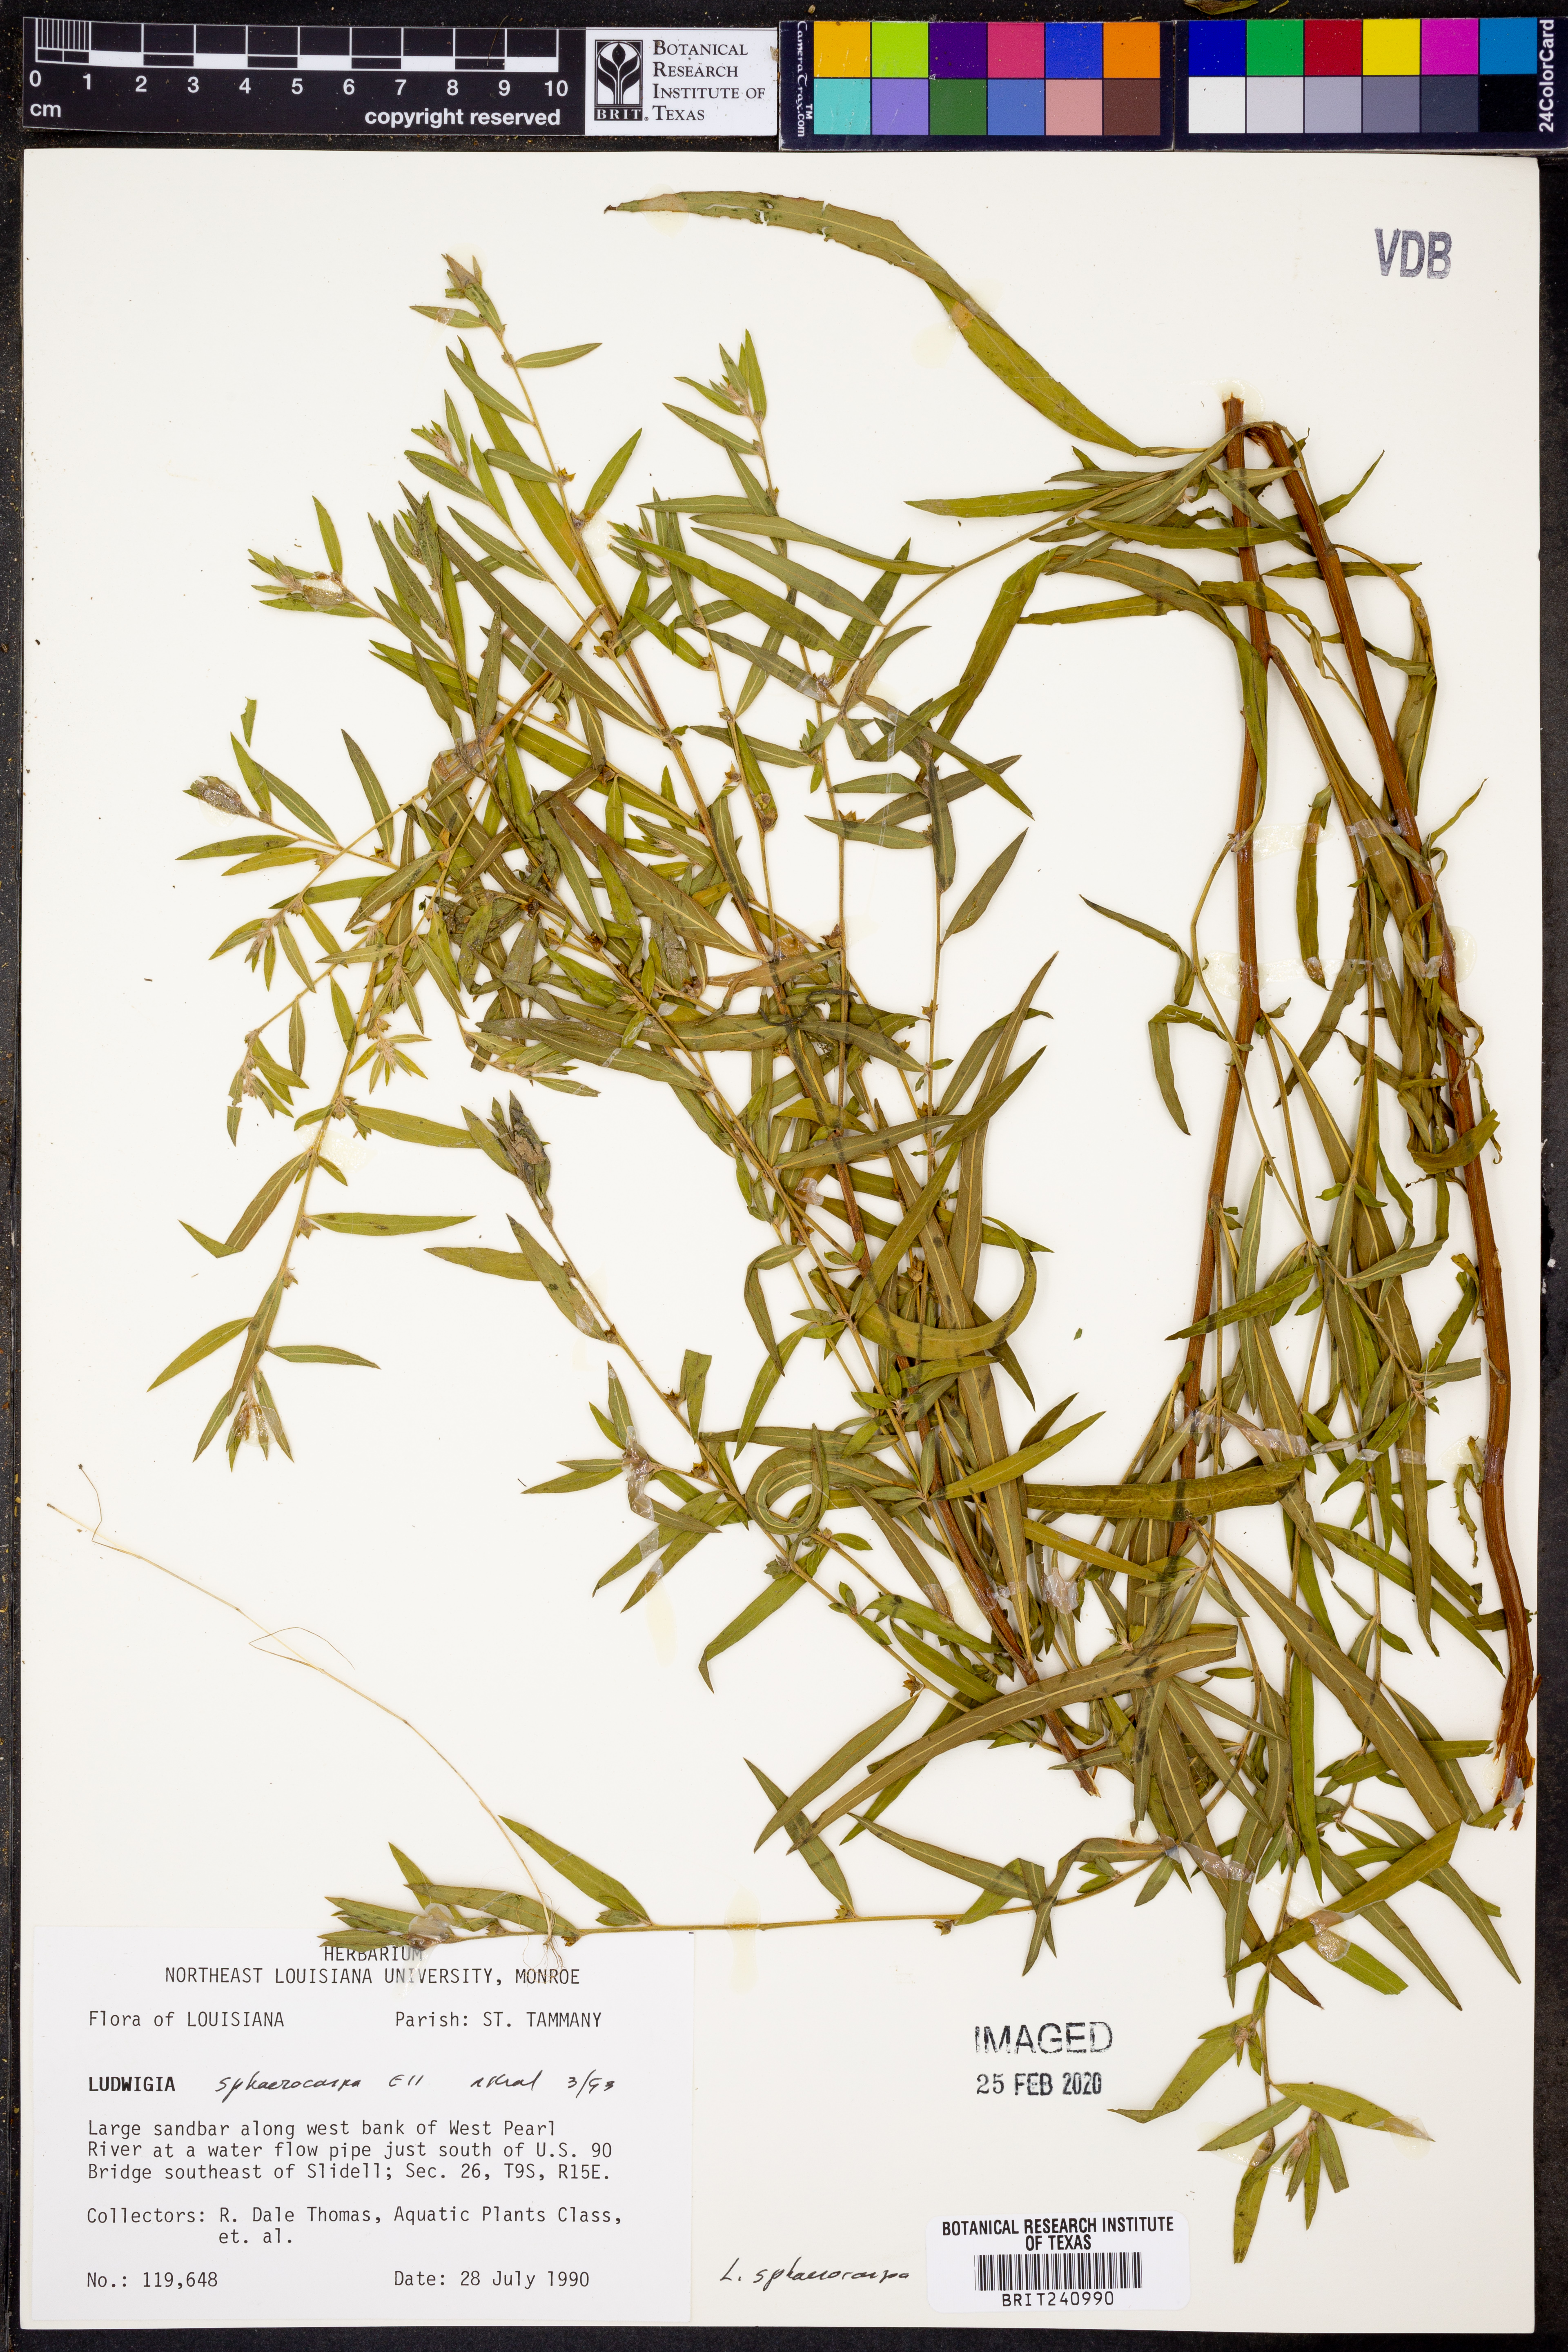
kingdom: Plantae
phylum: Tracheophyta
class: Magnoliopsida
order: Myrtales
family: Onagraceae
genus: Ludwigia
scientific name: Ludwigia sphaerocarpa
